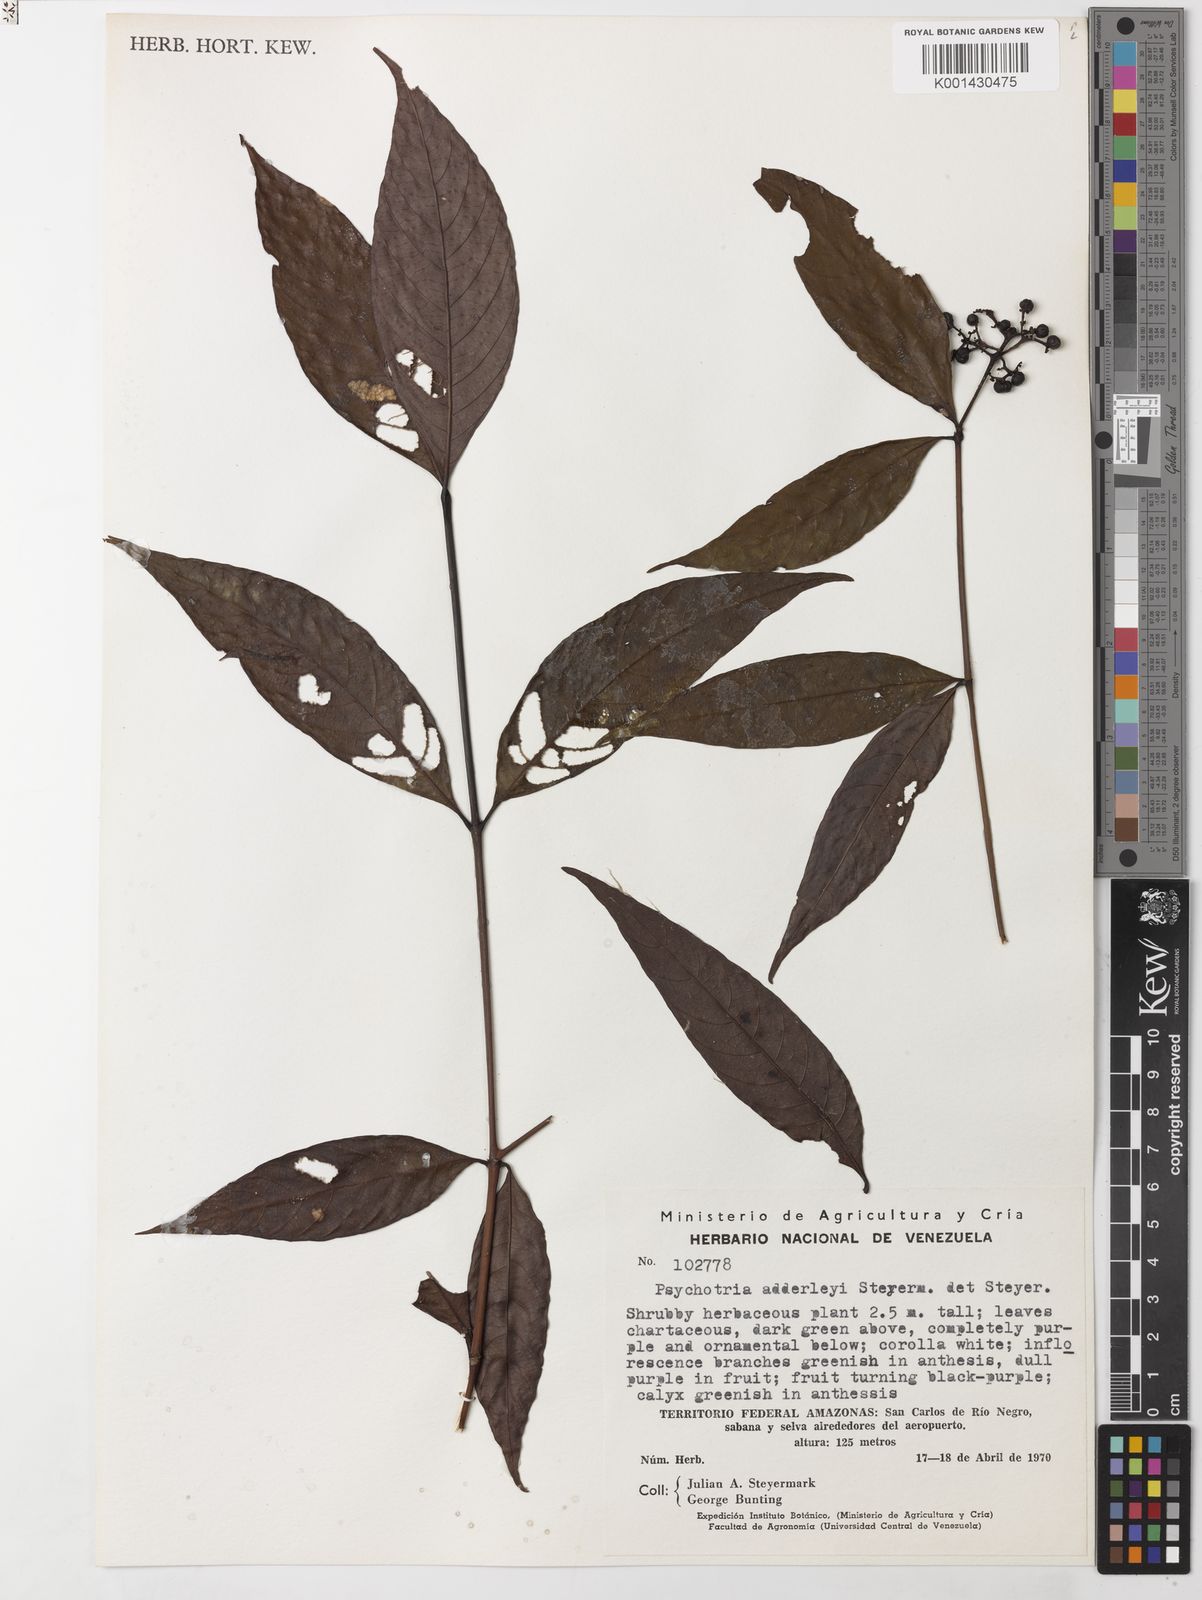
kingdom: Plantae
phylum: Tracheophyta
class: Magnoliopsida
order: Gentianales
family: Rubiaceae
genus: Palicourea
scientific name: Palicourea adderleyi
